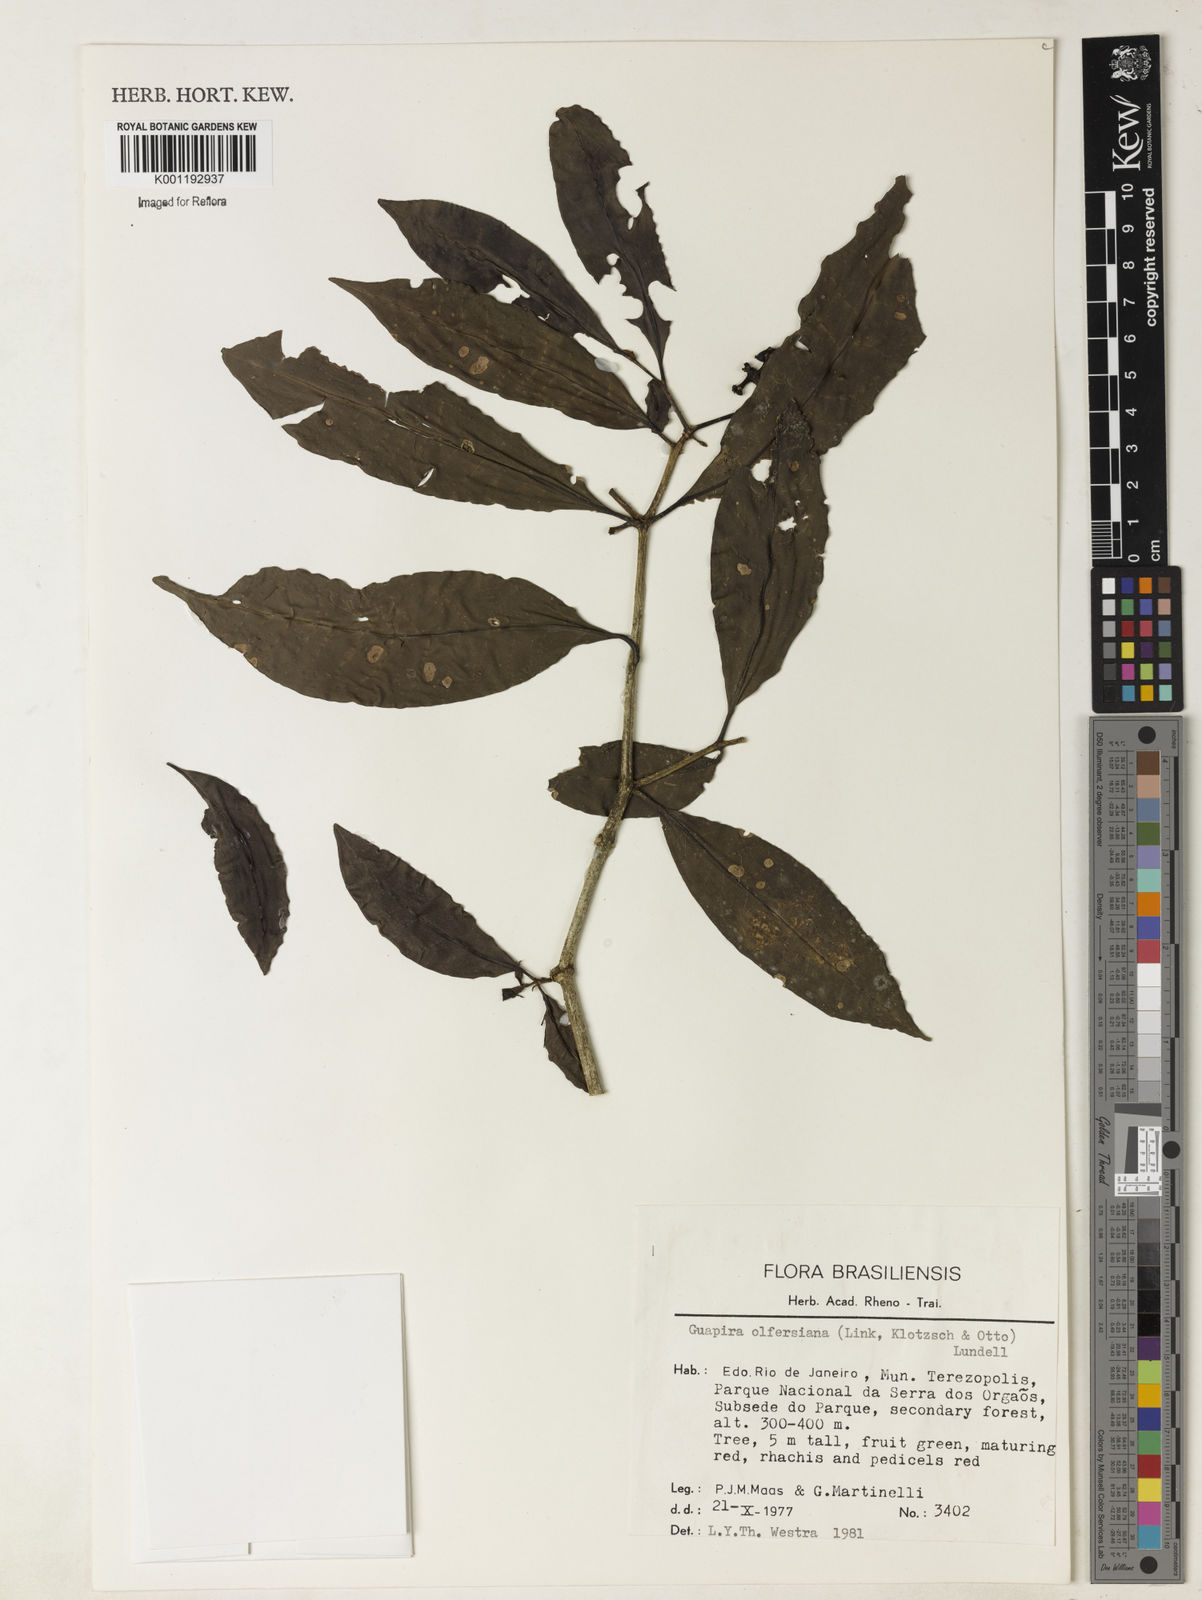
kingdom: Plantae
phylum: Tracheophyta
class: Magnoliopsida
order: Caryophyllales
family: Nyctaginaceae
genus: Guapira
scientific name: Guapira
